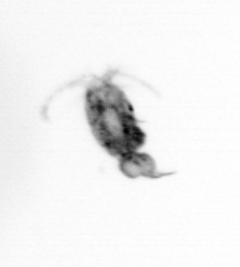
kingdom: Animalia
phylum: Arthropoda
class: Copepoda
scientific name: Copepoda
